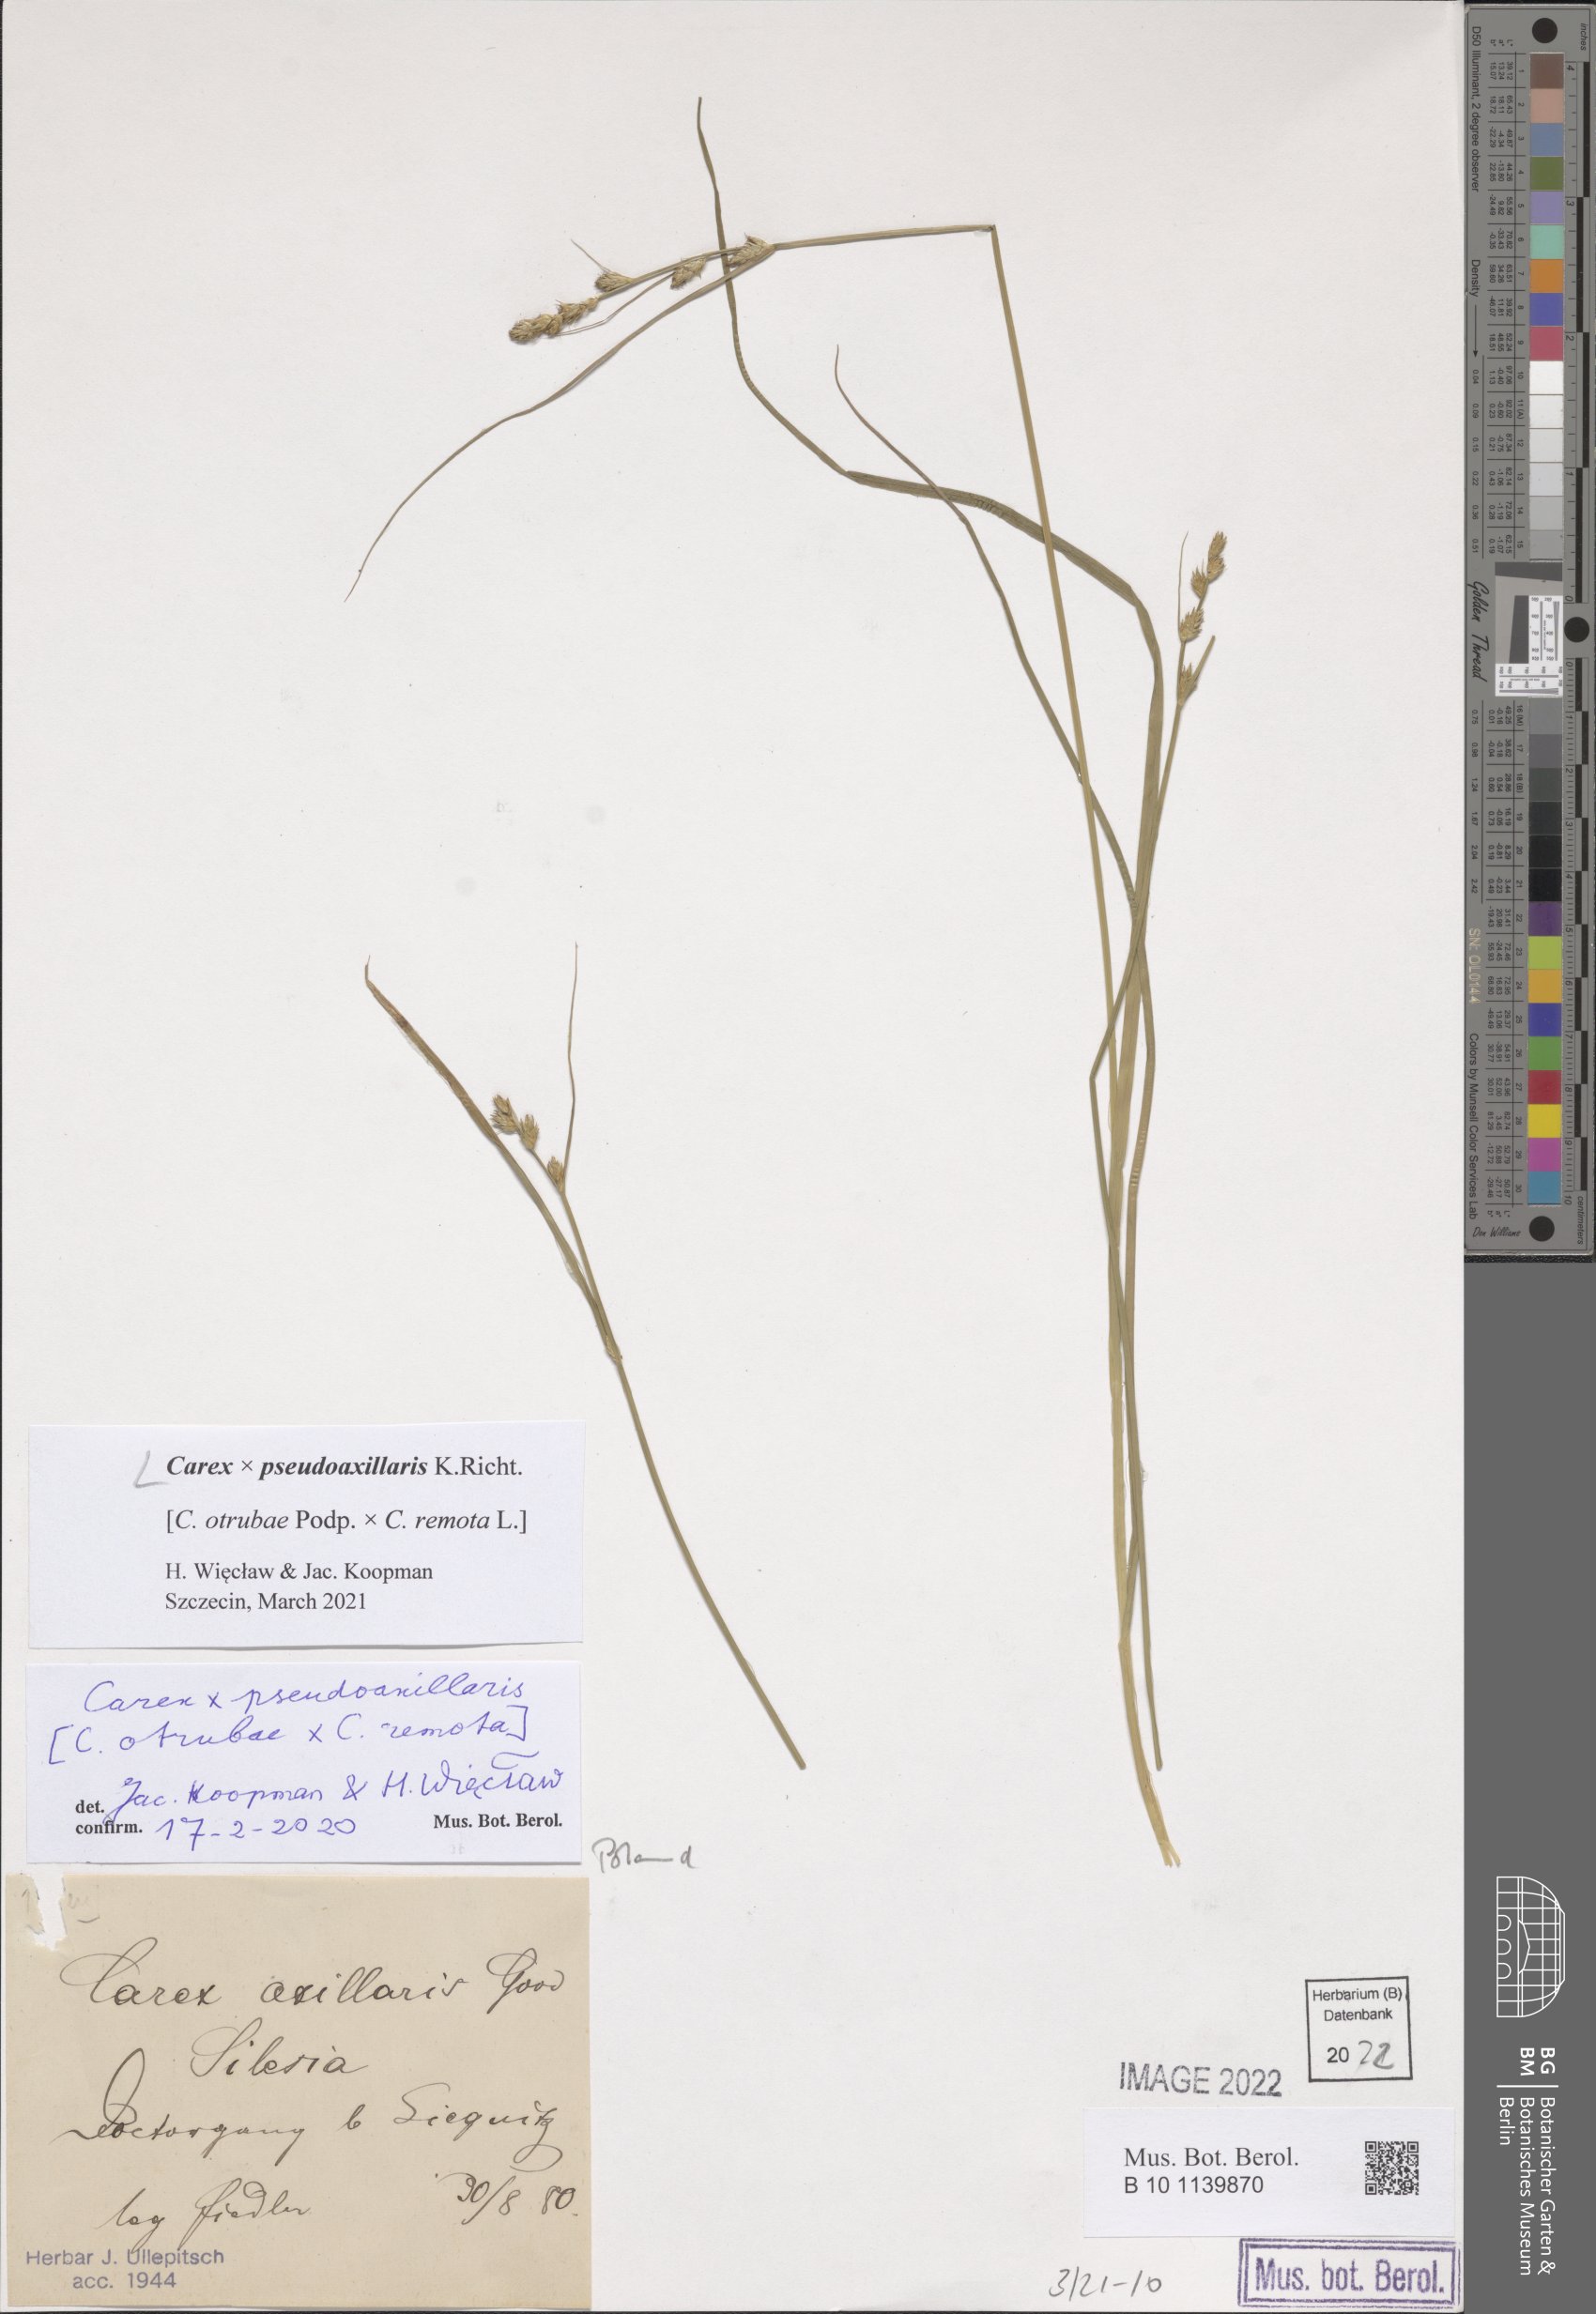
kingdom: Plantae
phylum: Tracheophyta
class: Liliopsida
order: Poales
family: Cyperaceae
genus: Carex
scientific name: Carex pseudoaxillaris
